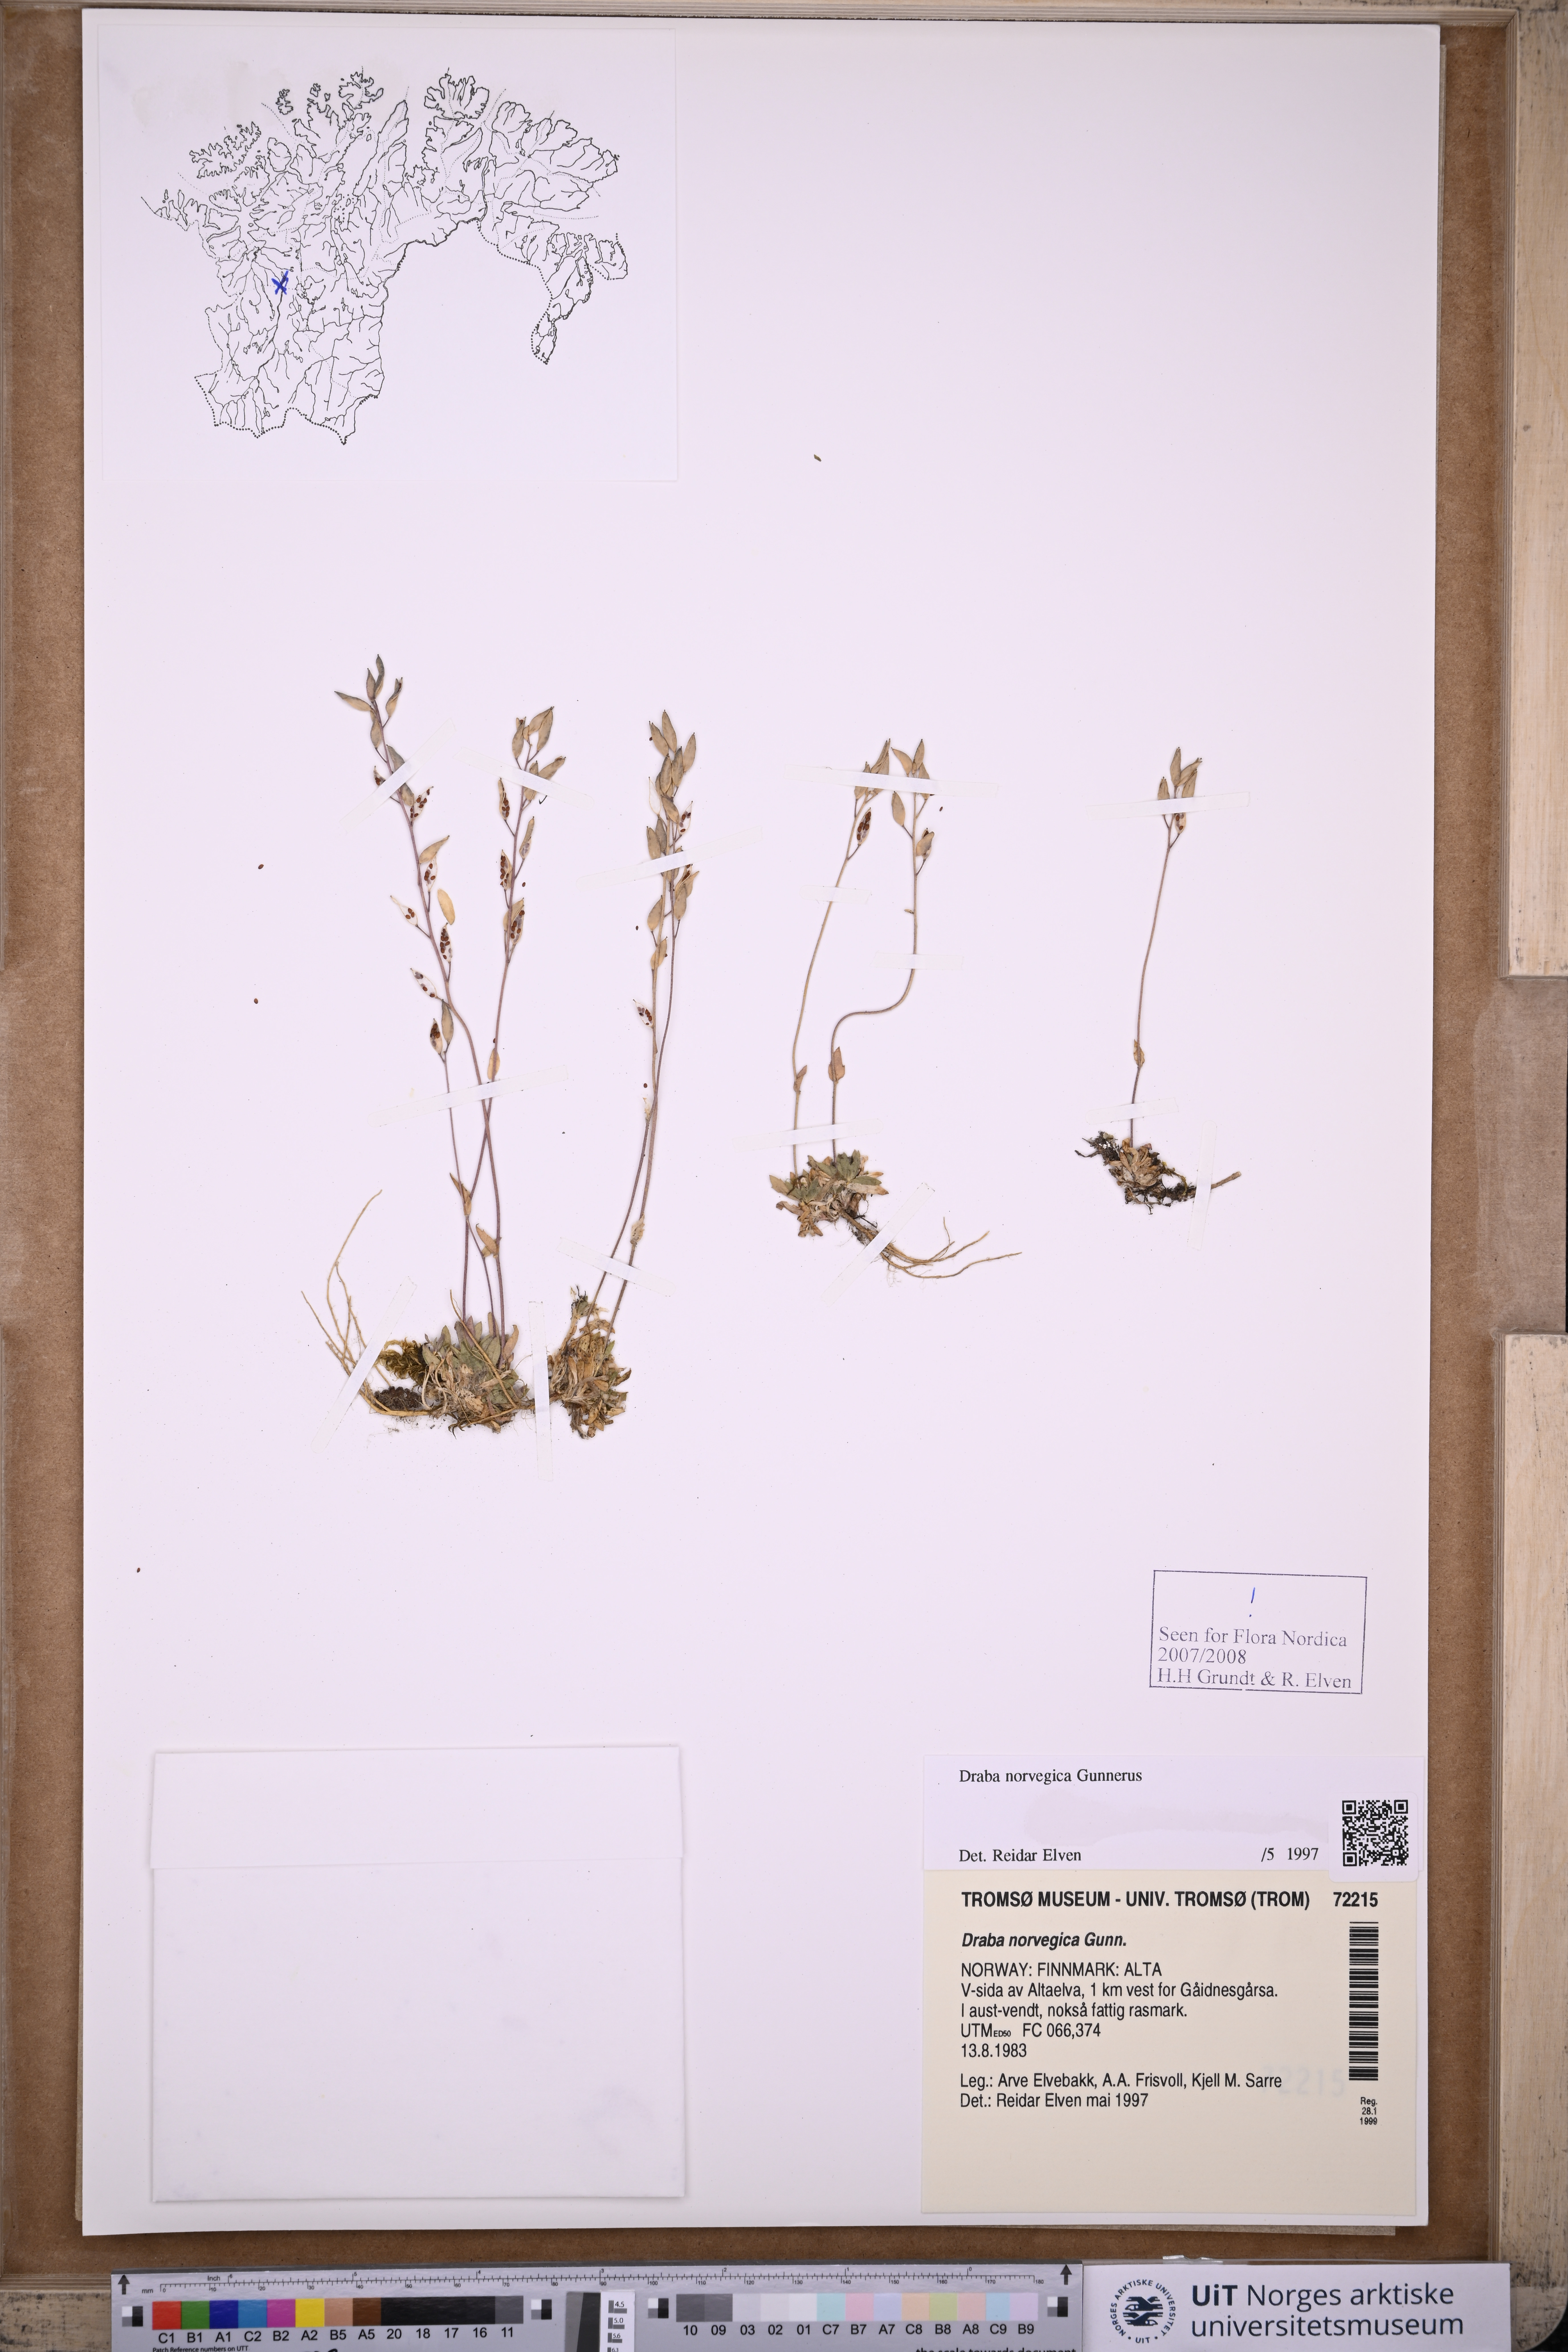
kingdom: Plantae
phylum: Tracheophyta
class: Magnoliopsida
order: Brassicales
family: Brassicaceae
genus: Draba
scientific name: Draba norvegica
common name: Rock whitlowgrass
